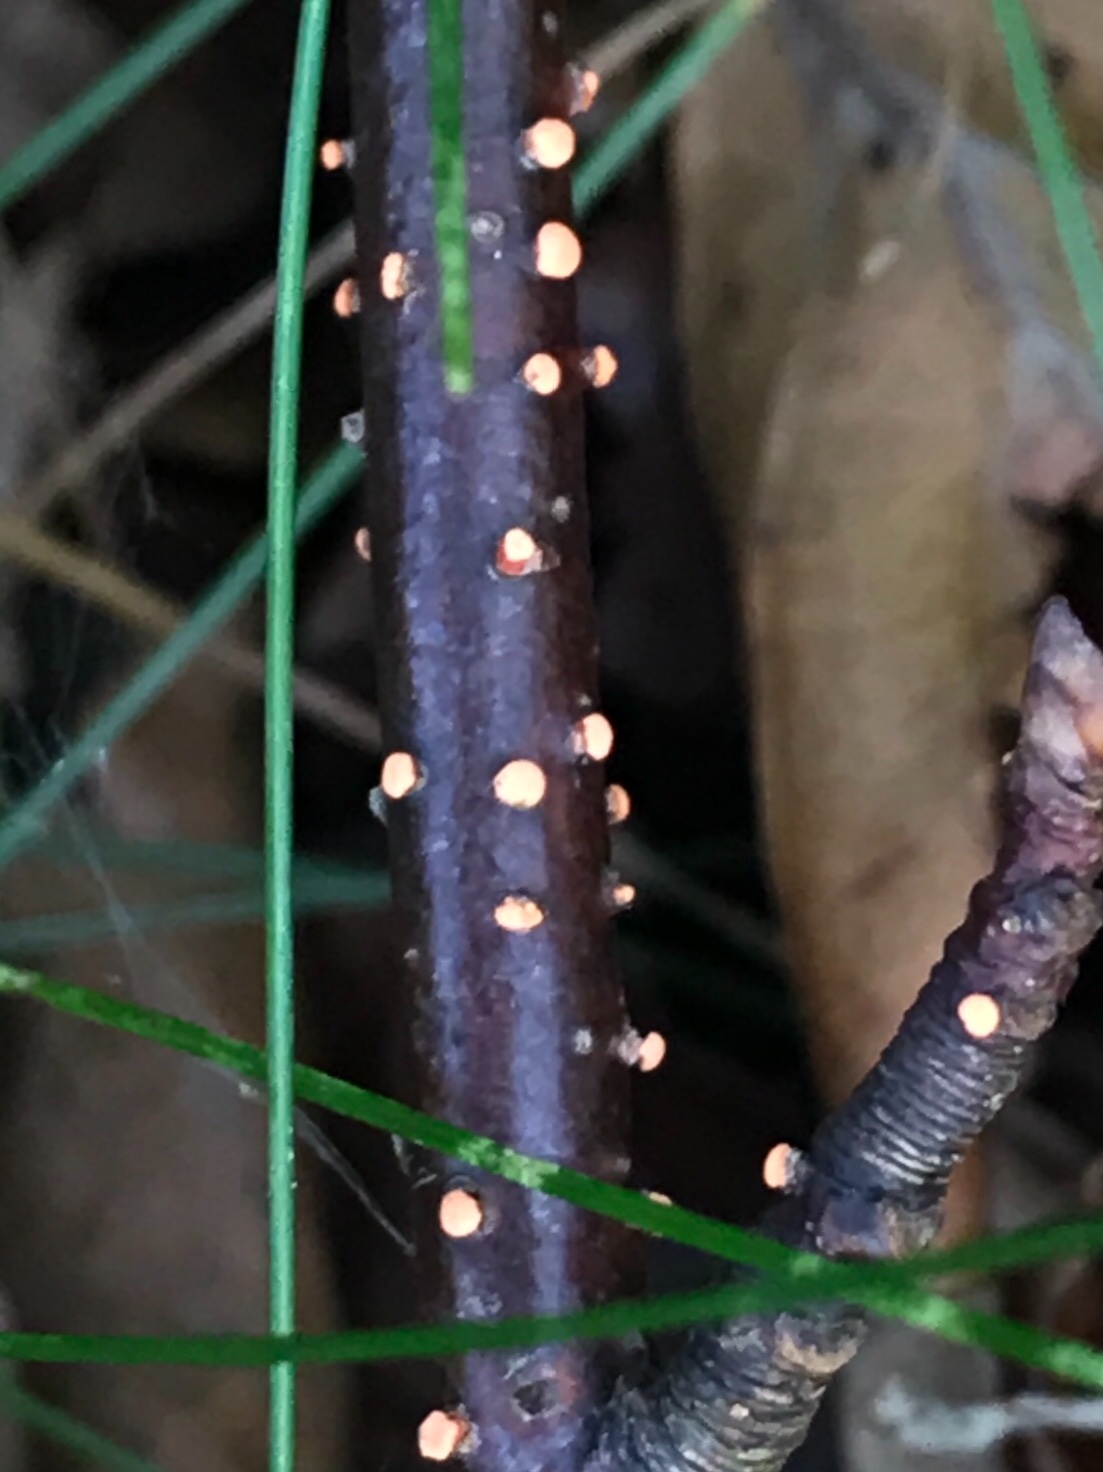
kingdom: Fungi
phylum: Ascomycota
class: Sordariomycetes
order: Hypocreales
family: Nectriaceae
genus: Nectria
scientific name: Nectria cinnabarina
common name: almindelig cinnobersvamp
